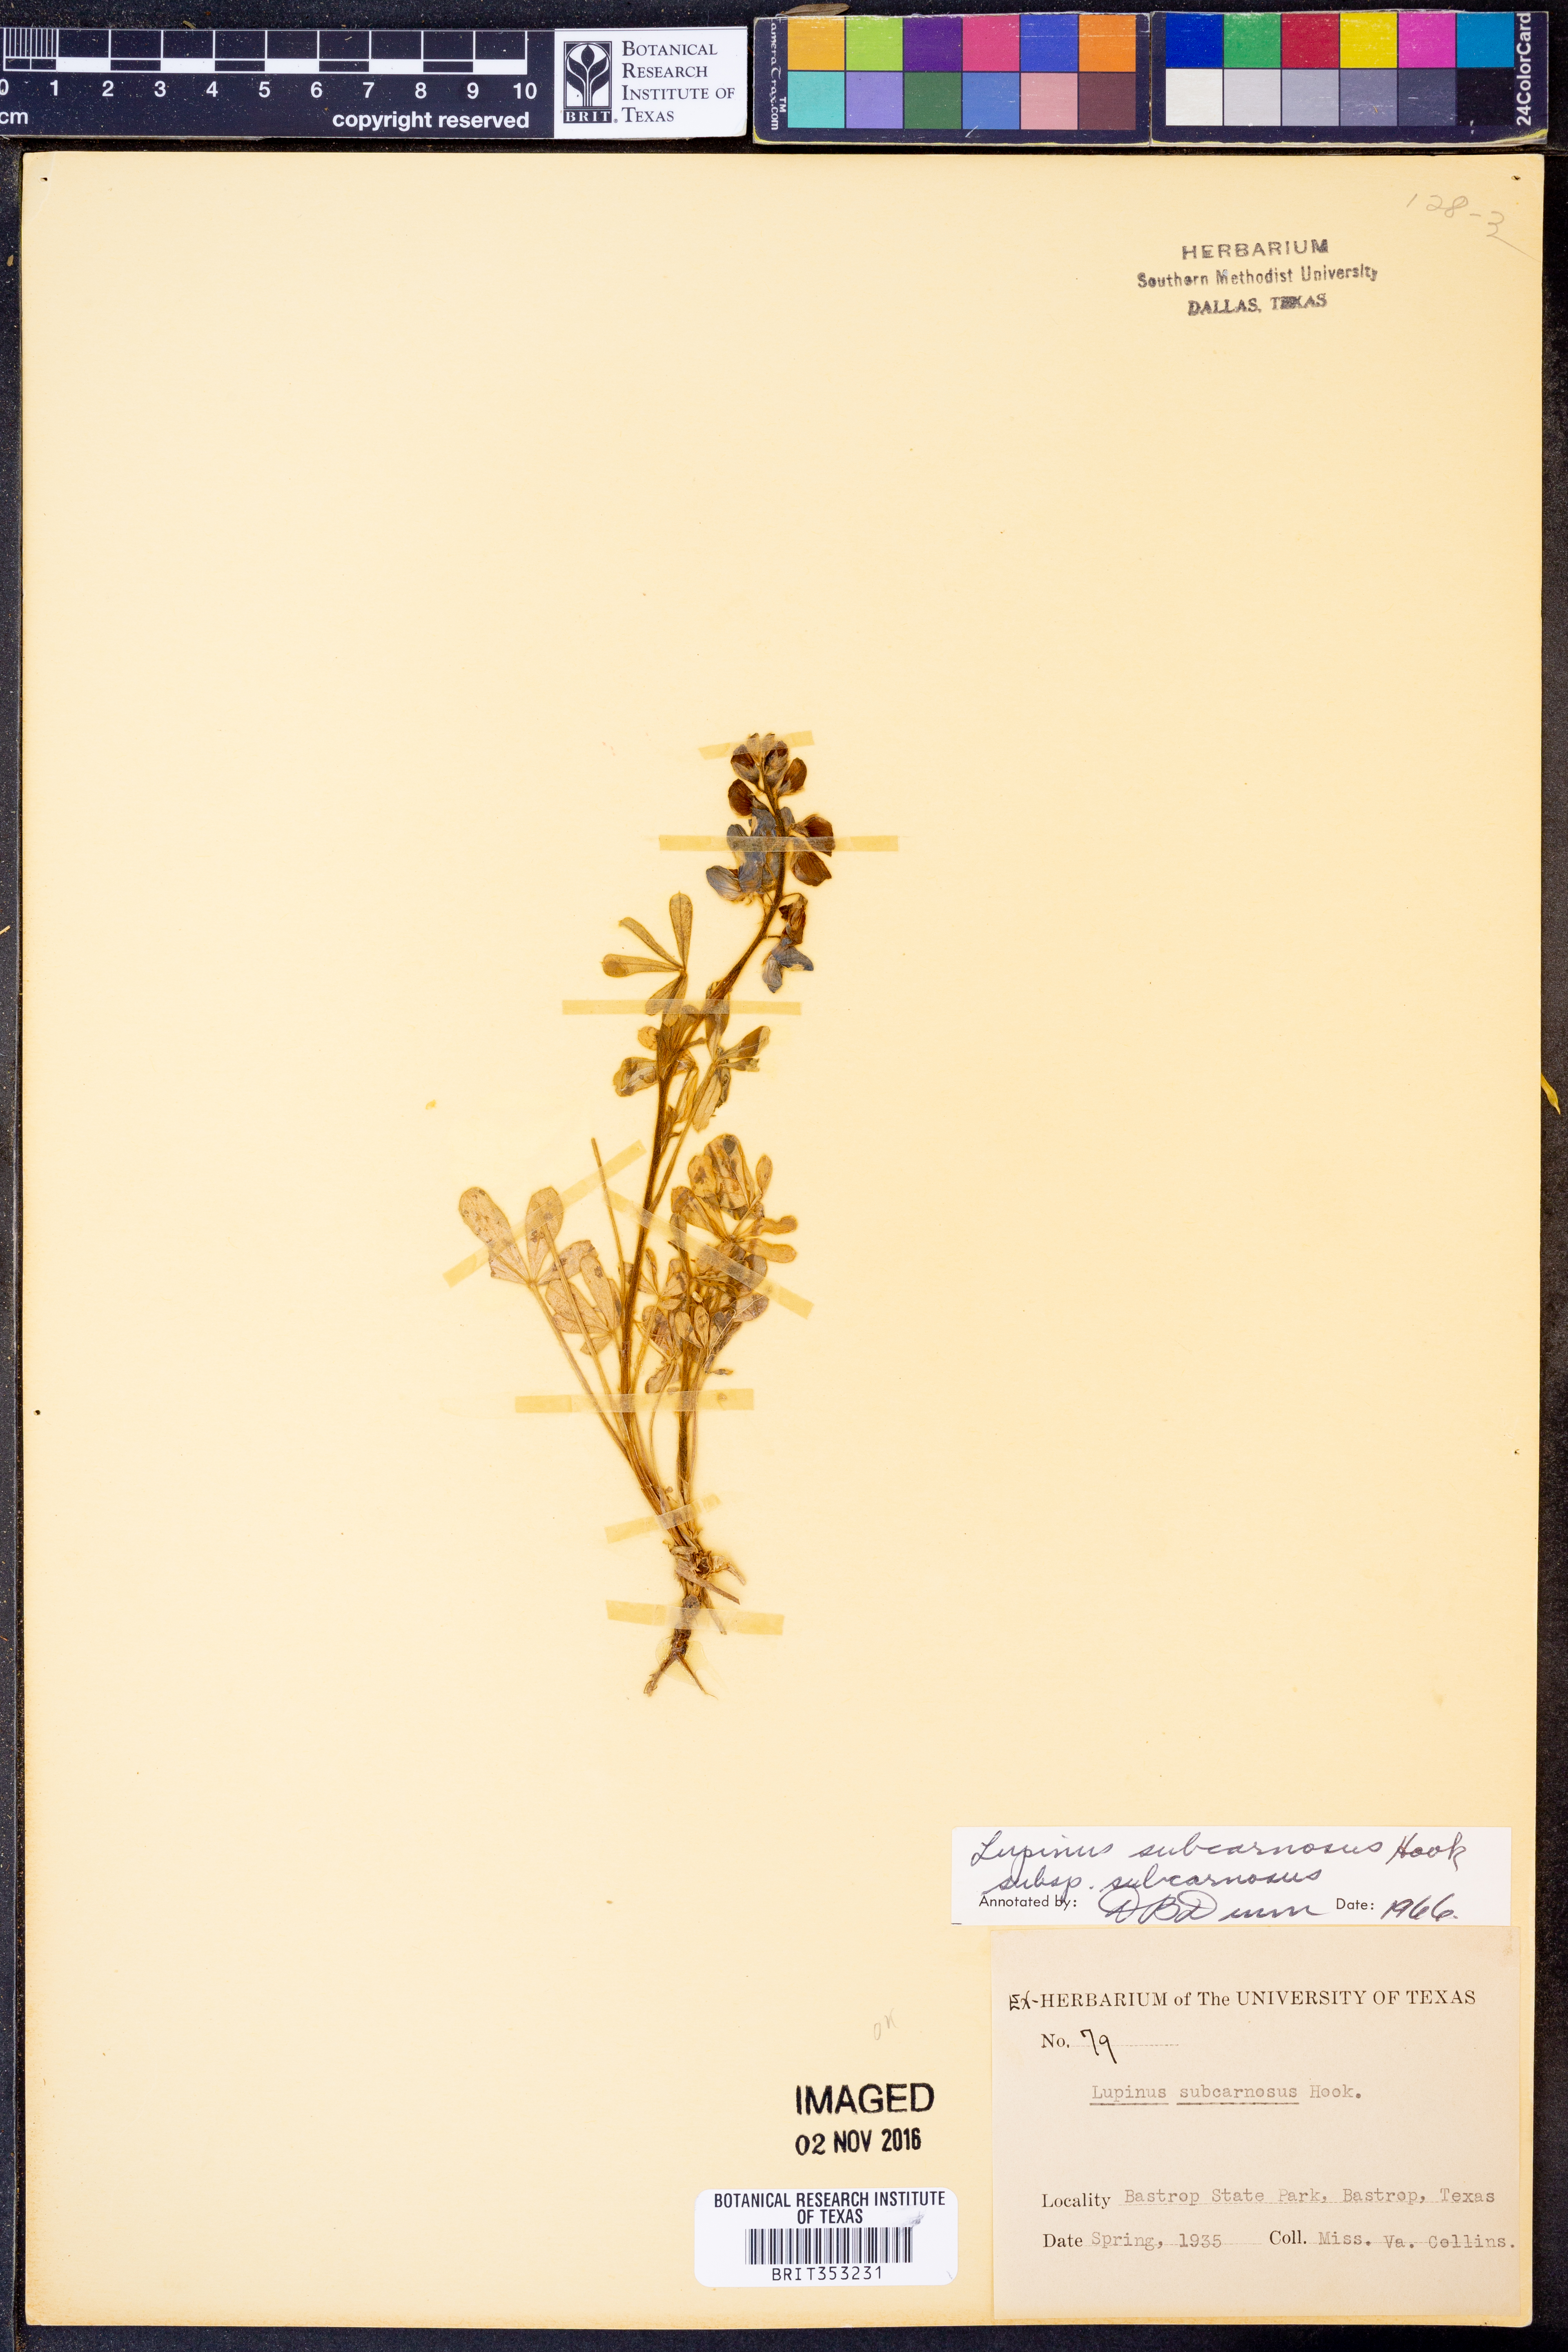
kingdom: Plantae
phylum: Tracheophyta
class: Magnoliopsida
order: Fabales
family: Fabaceae
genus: Lupinus
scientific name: Lupinus subcarnosus
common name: Texas bluebonnet
